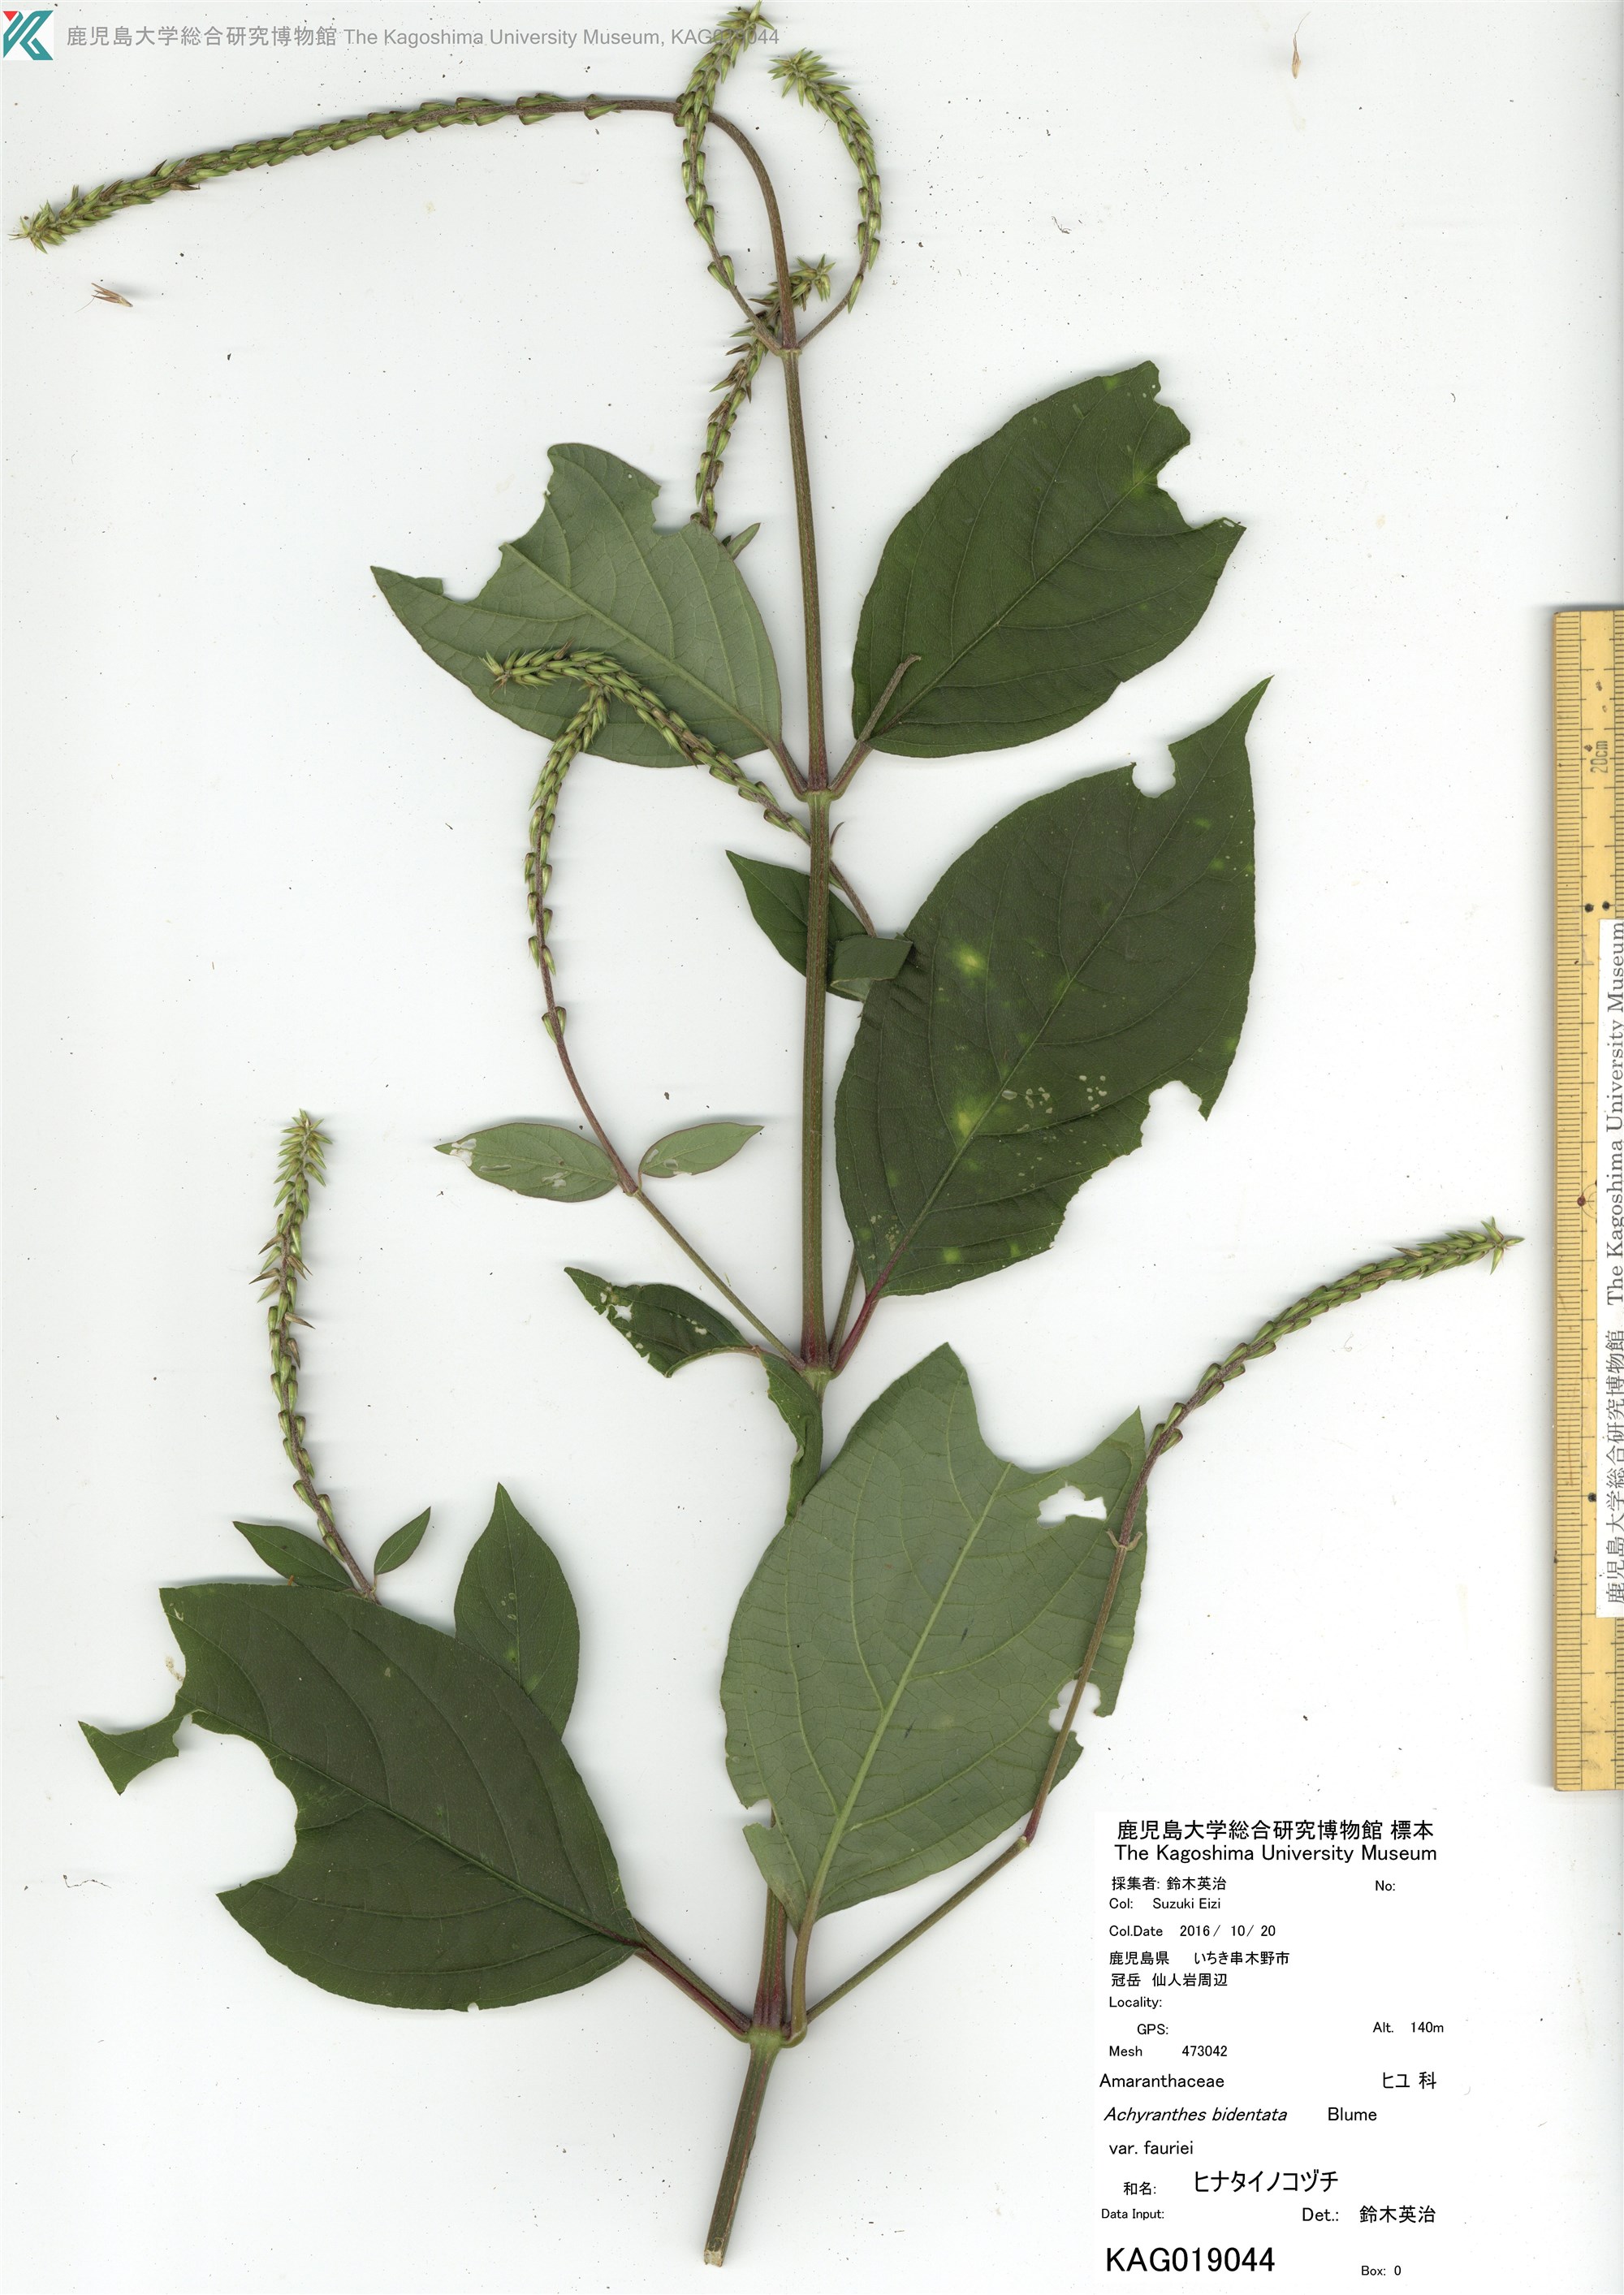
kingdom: Plantae
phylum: Tracheophyta
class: Magnoliopsida
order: Caryophyllales
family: Amaranthaceae
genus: Achyranthes
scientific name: Achyranthes bidentata
